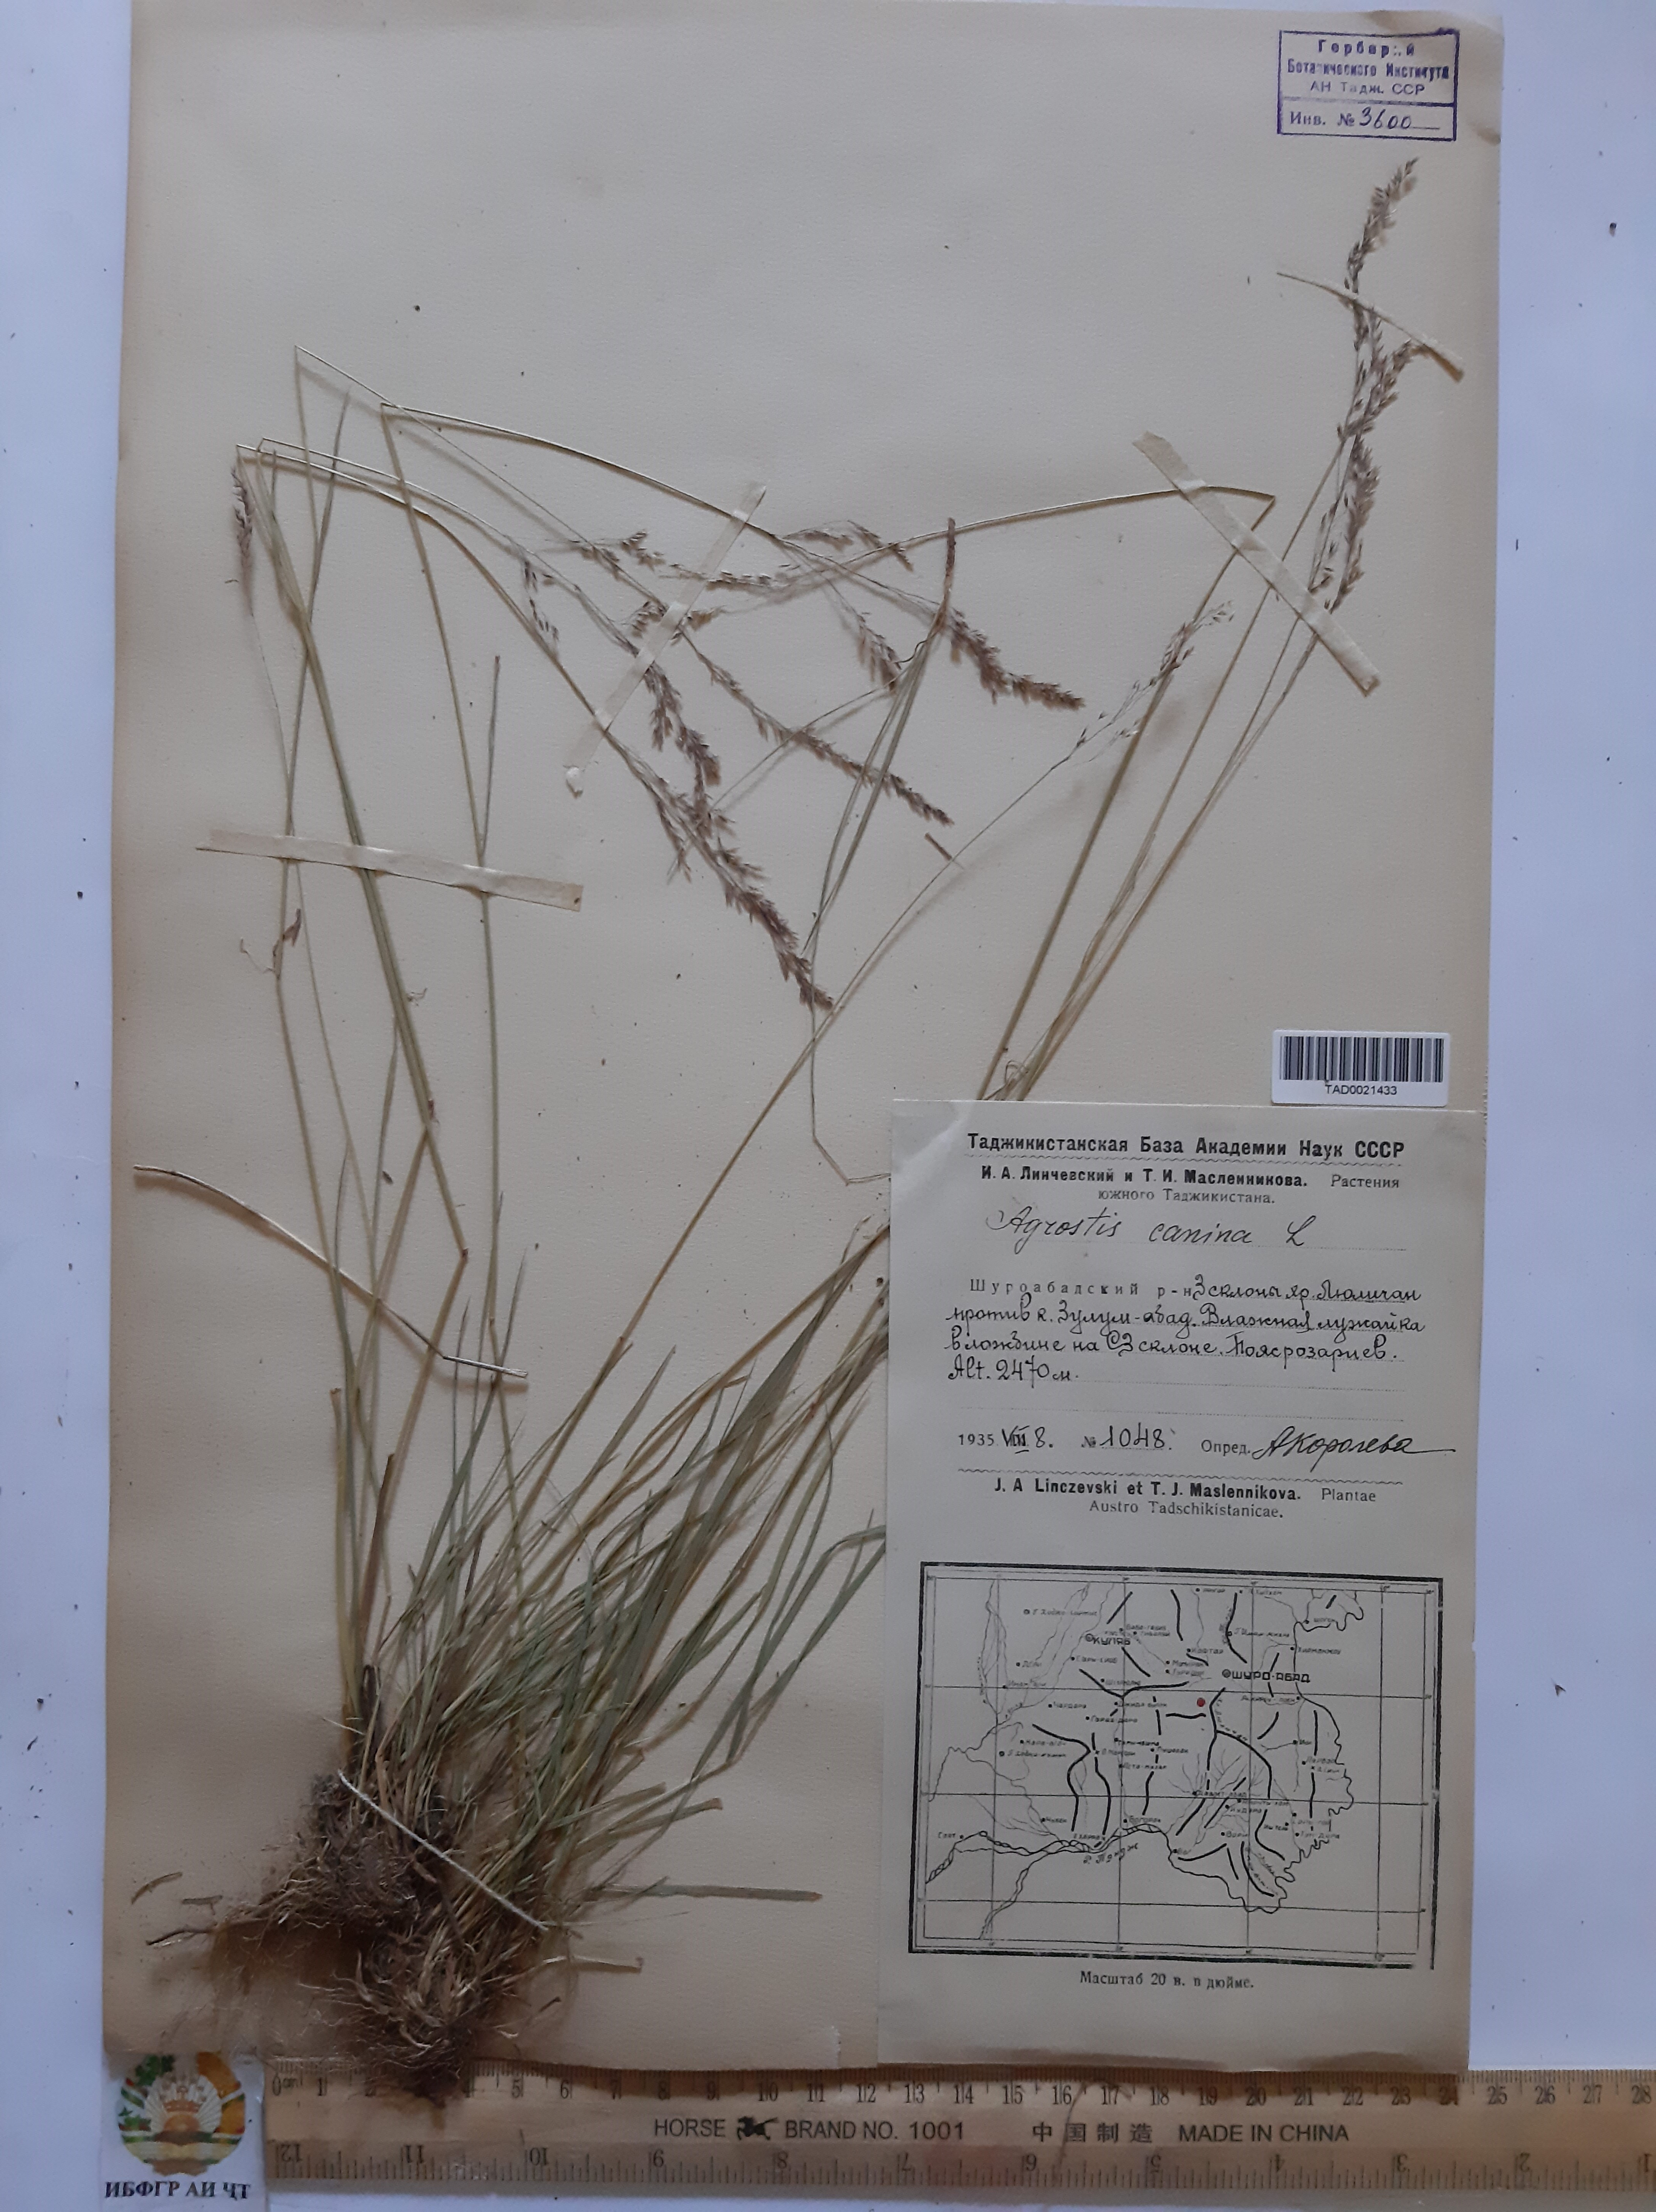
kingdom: Plantae
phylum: Tracheophyta
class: Liliopsida
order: Poales
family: Poaceae
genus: Agrostis
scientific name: Agrostis canina
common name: Velvet bent
